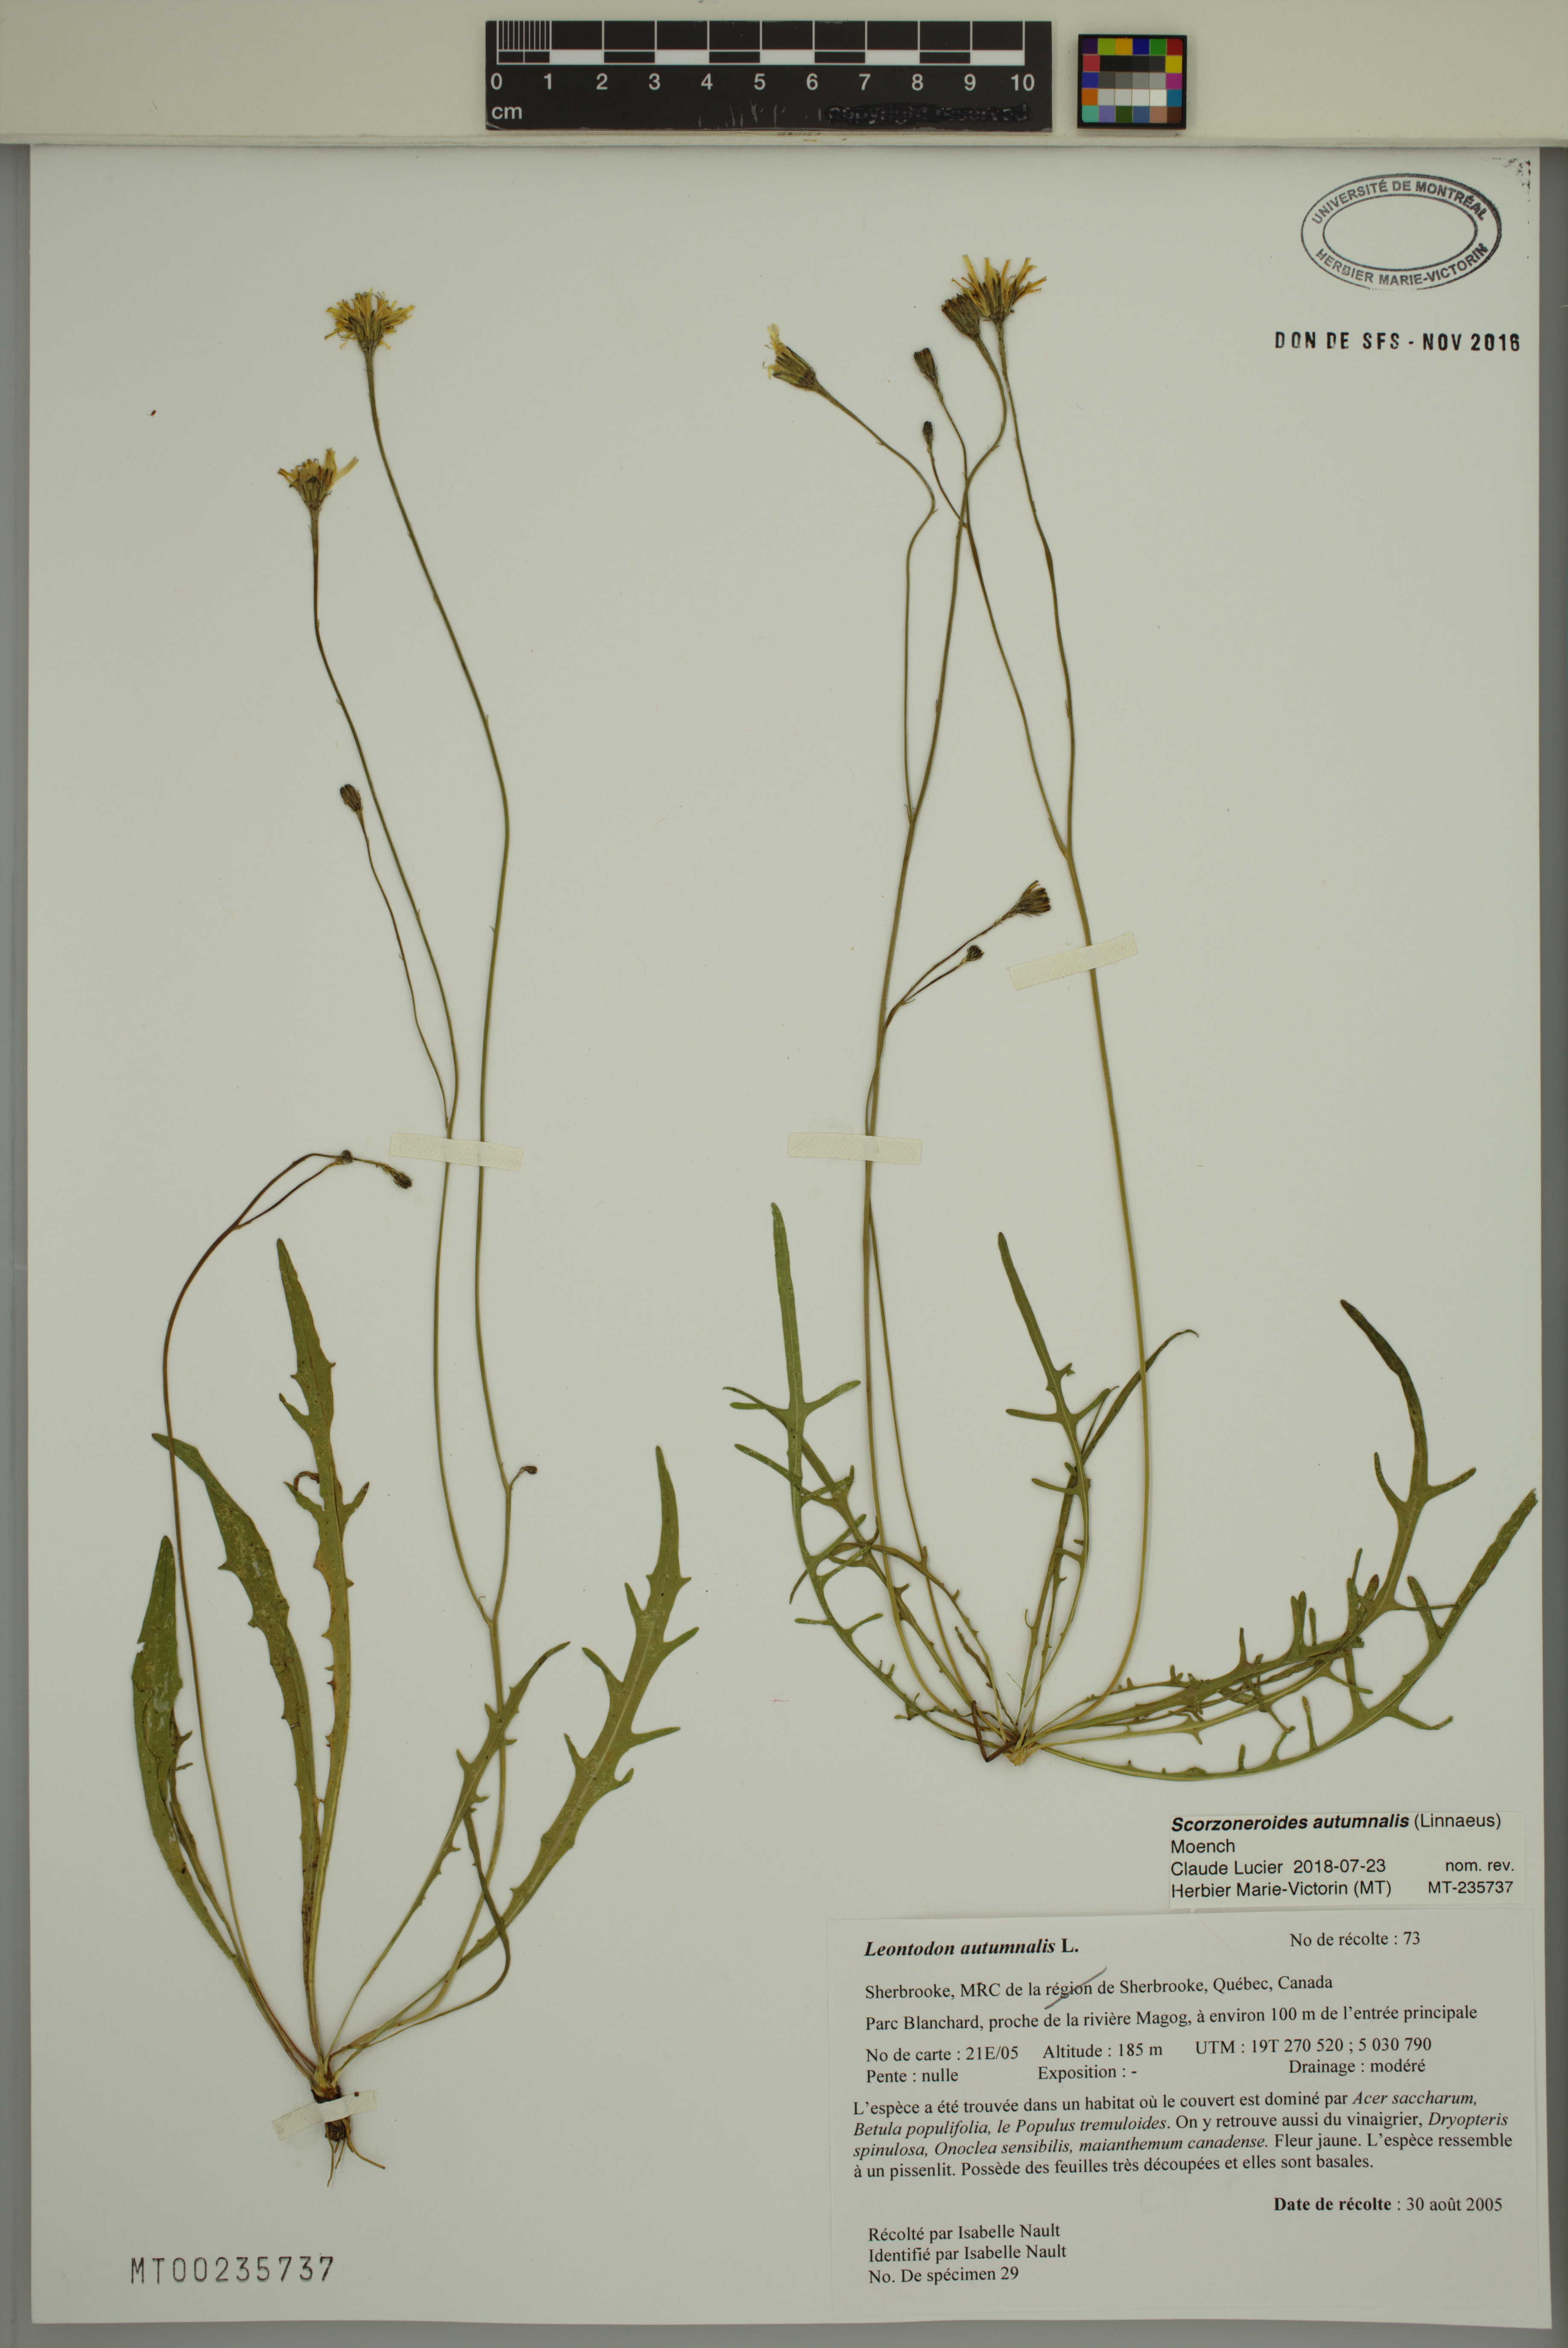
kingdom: Plantae
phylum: Tracheophyta
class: Magnoliopsida
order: Asterales
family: Asteraceae
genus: Scorzoneroides
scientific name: Scorzoneroides autumnalis
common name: Autumn hawkbit
